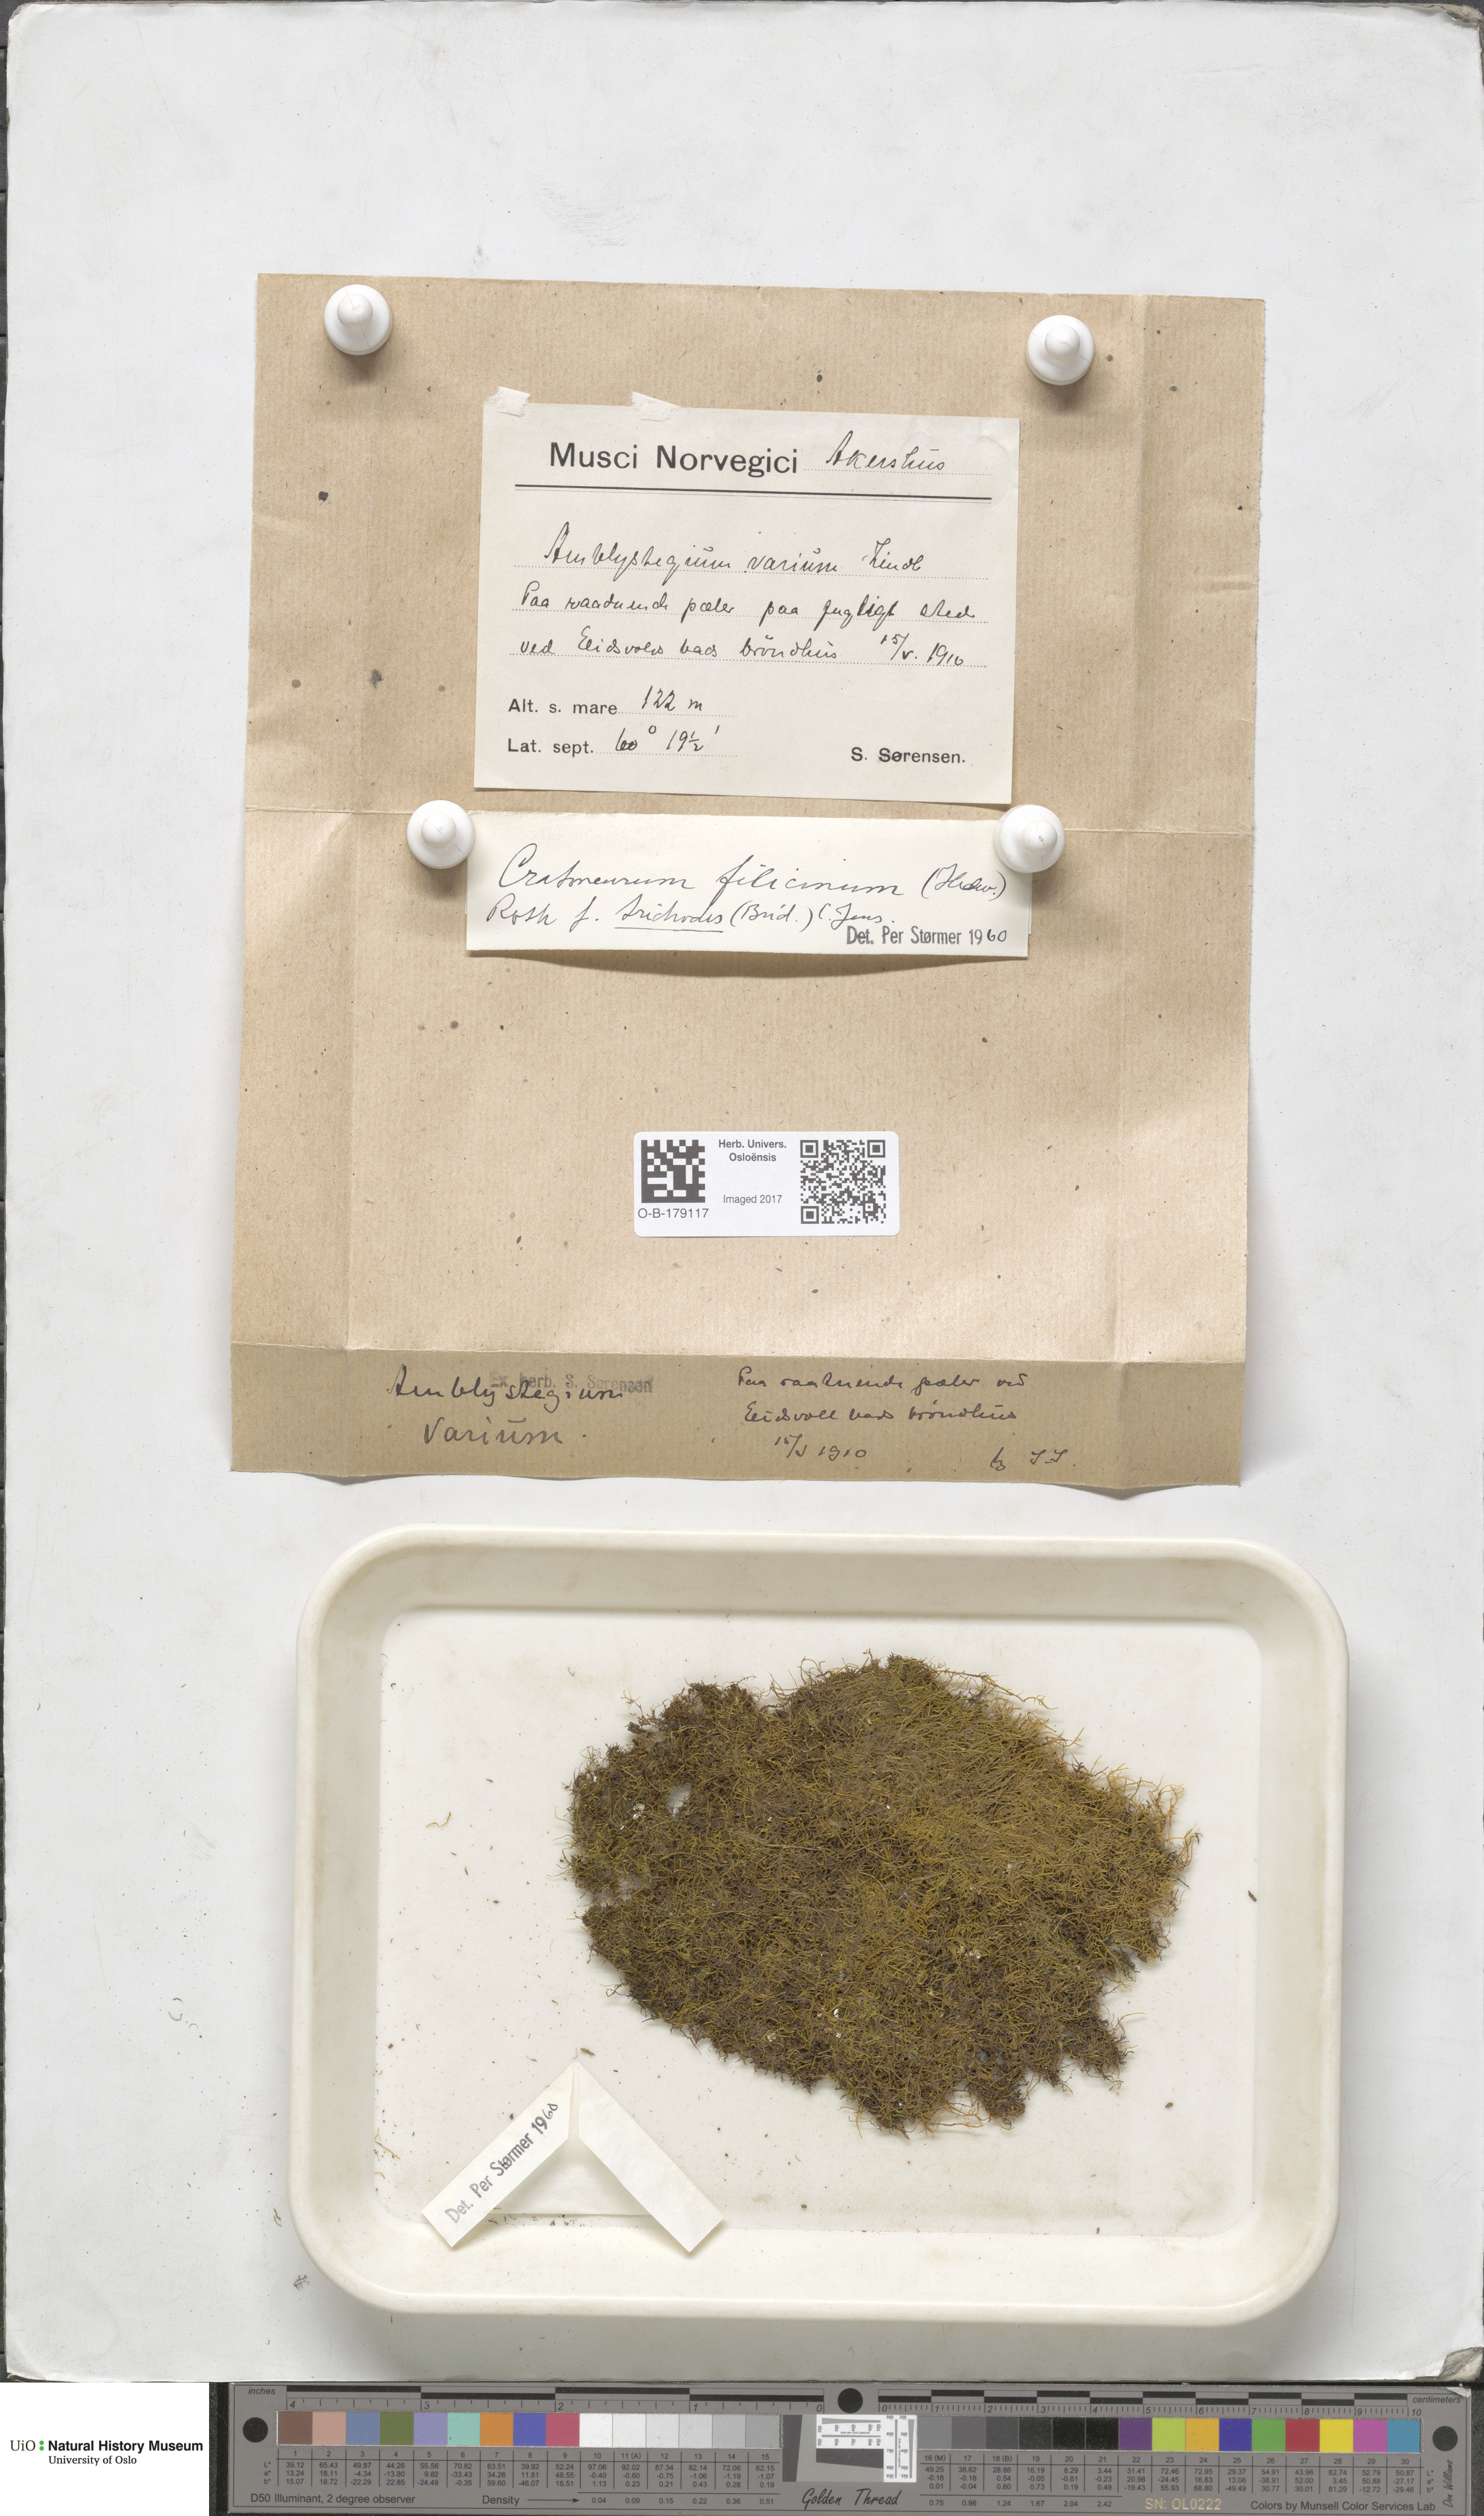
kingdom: Plantae
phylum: Bryophyta
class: Bryopsida
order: Hypnales
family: Amblystegiaceae
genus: Cratoneuron
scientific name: Cratoneuron filicinum
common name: Fern-leaved hook moss
